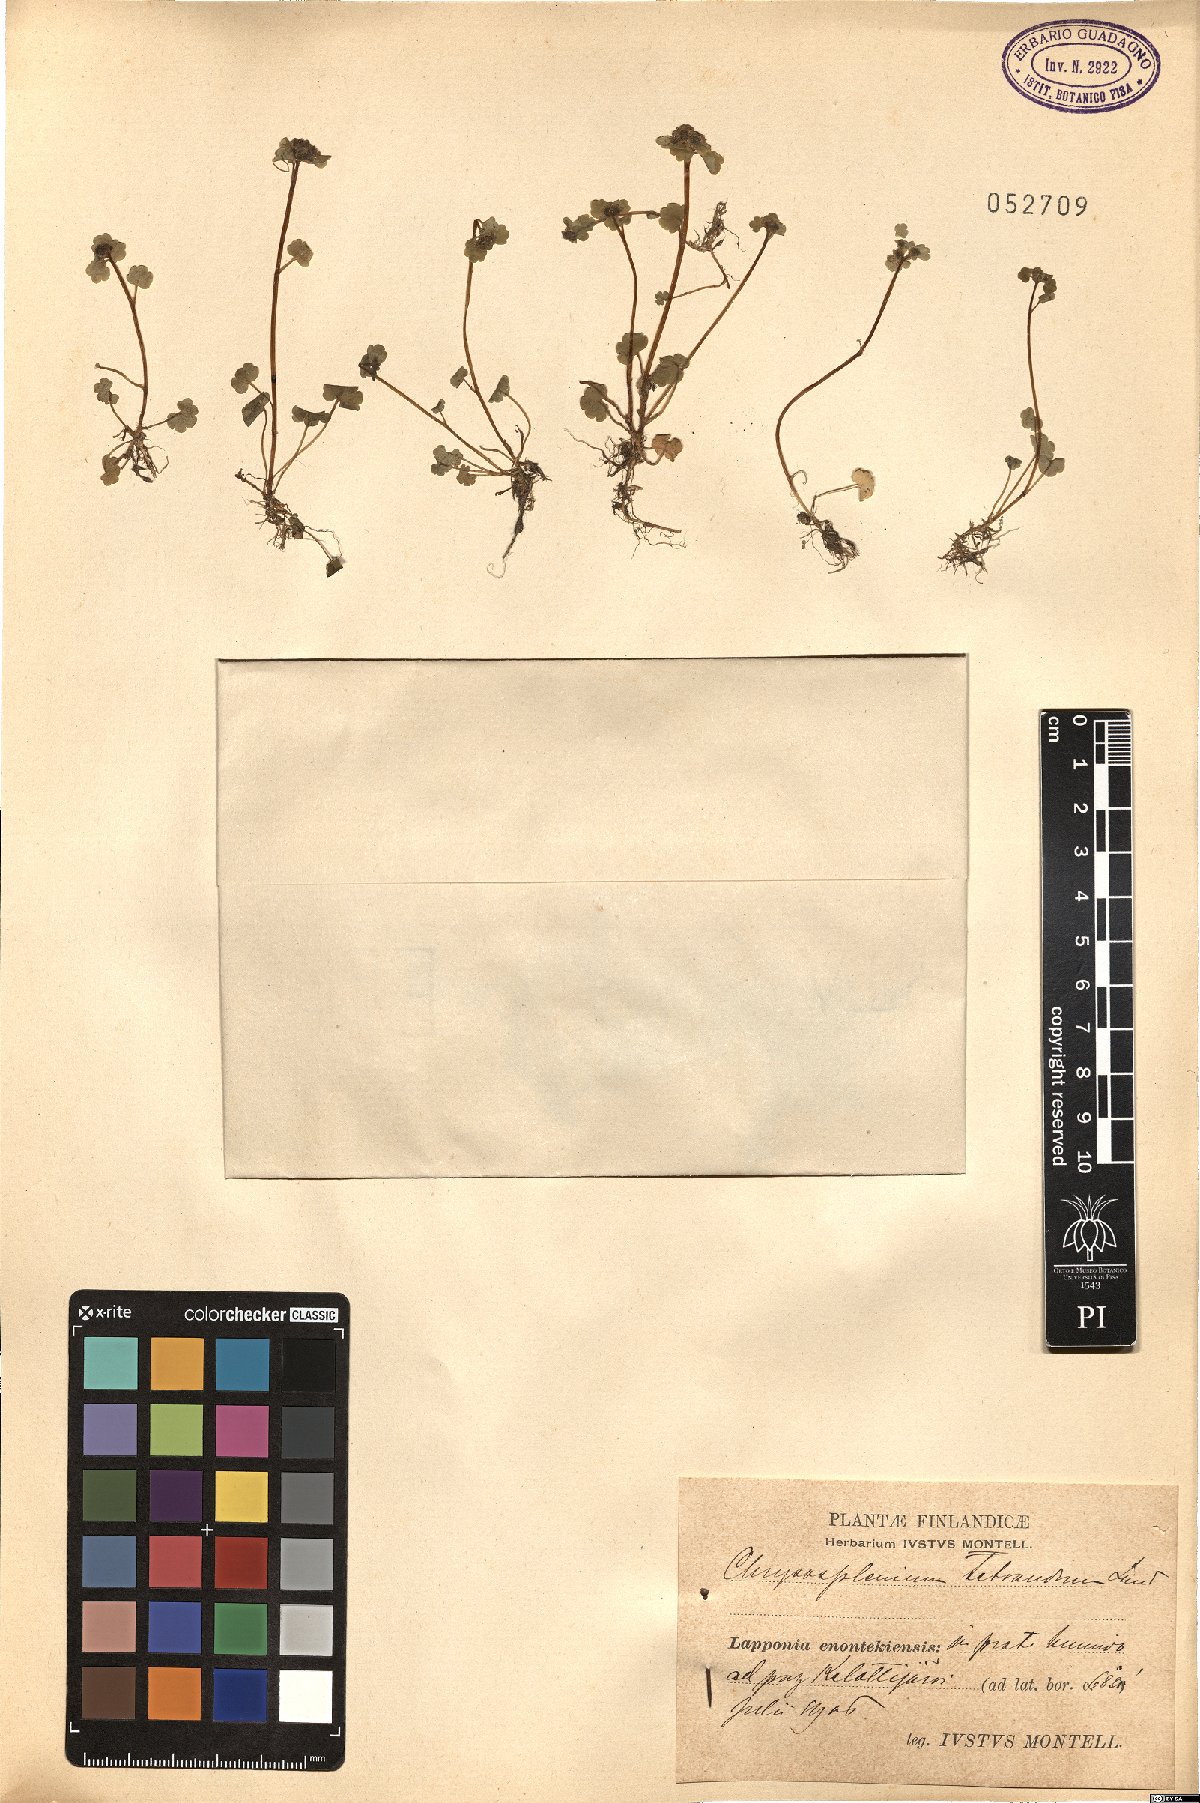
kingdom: Plantae
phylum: Tracheophyta
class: Magnoliopsida
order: Saxifragales
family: Saxifragaceae
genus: Chrysosplenium
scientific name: Chrysosplenium tetrandrum
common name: Green saxifrage
